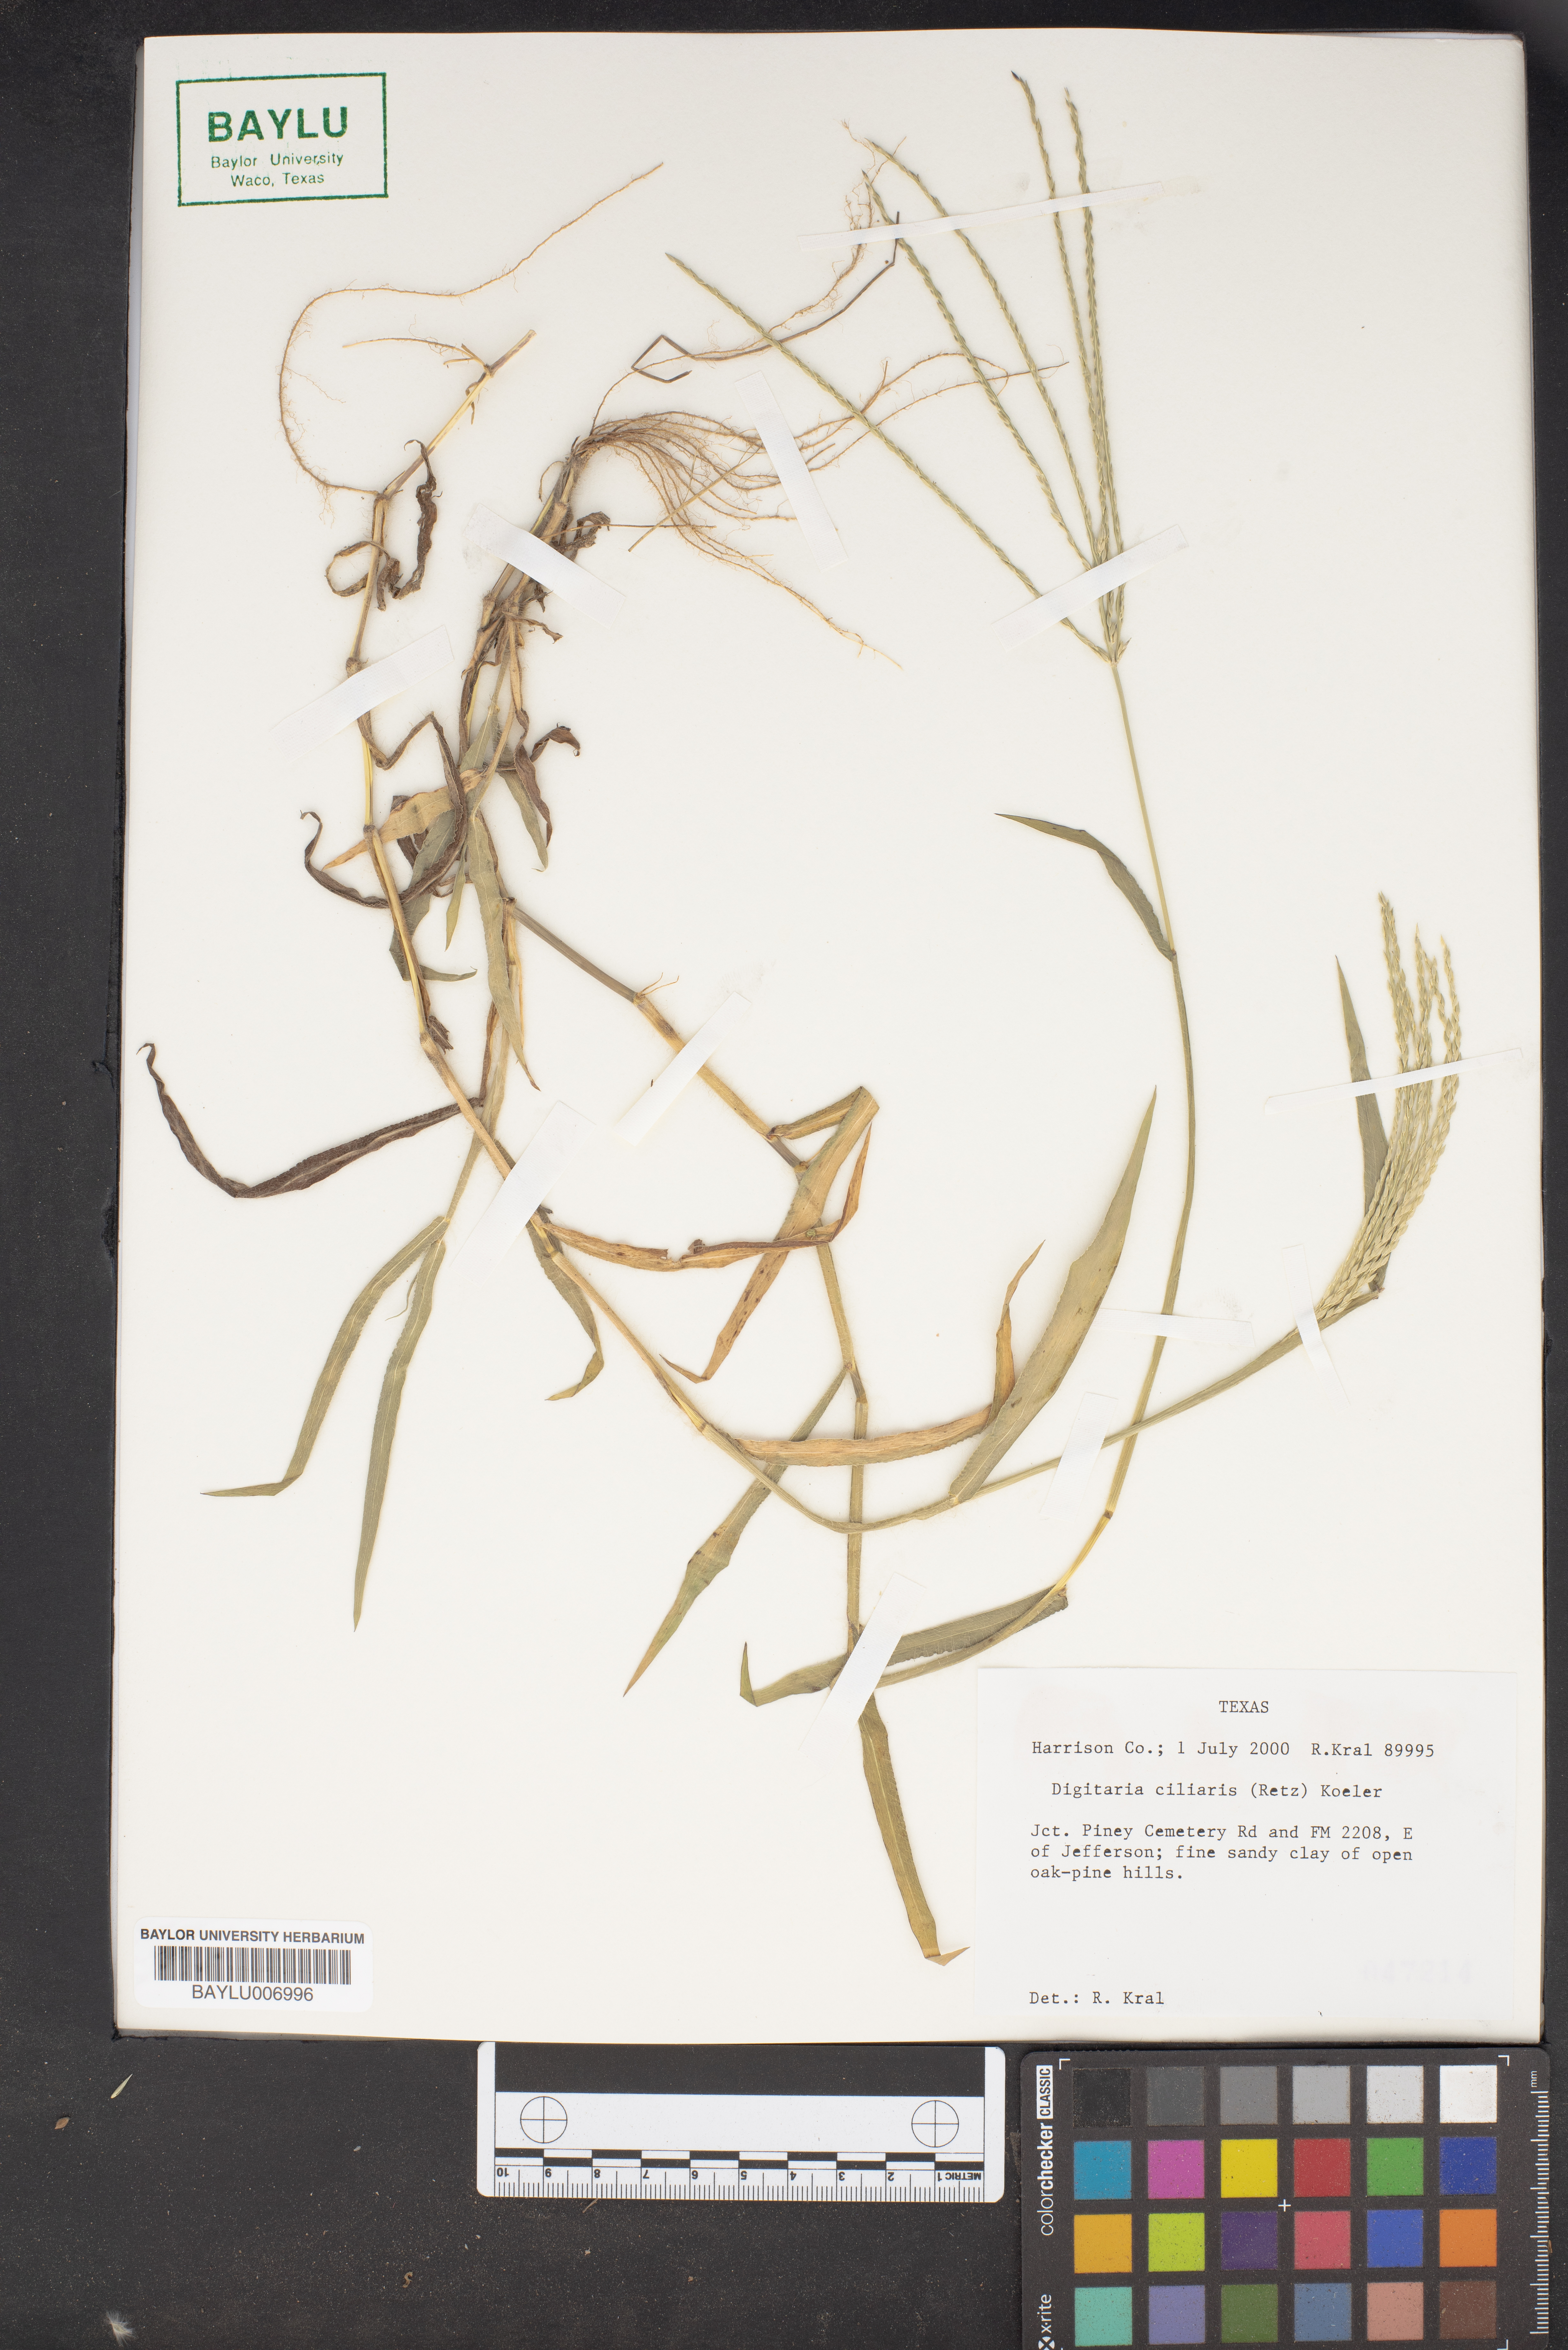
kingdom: Plantae
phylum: Tracheophyta
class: Liliopsida
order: Poales
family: Poaceae
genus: Digitaria
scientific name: Digitaria ciliaris
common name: Tropical finger-grass
